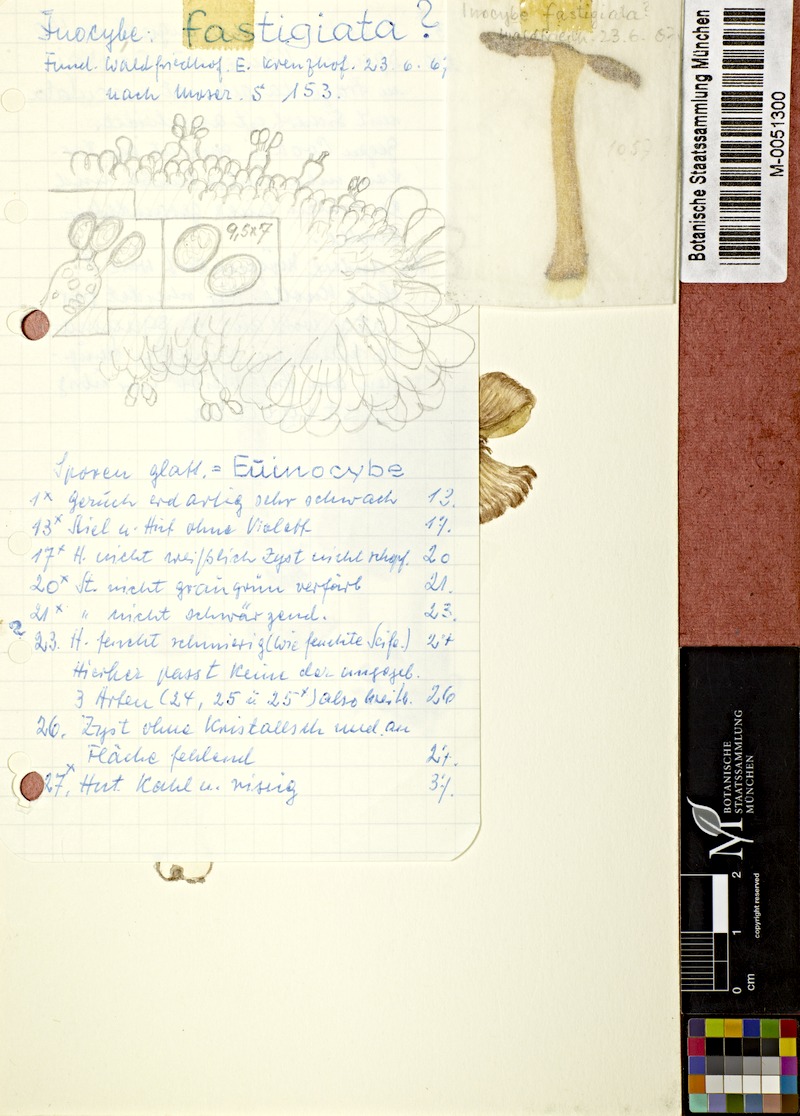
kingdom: Fungi
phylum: Basidiomycota
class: Agaricomycetes
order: Agaricales
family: Inocybaceae
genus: Pseudosperma
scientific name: Pseudosperma rimosum
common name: Split fibrecap
